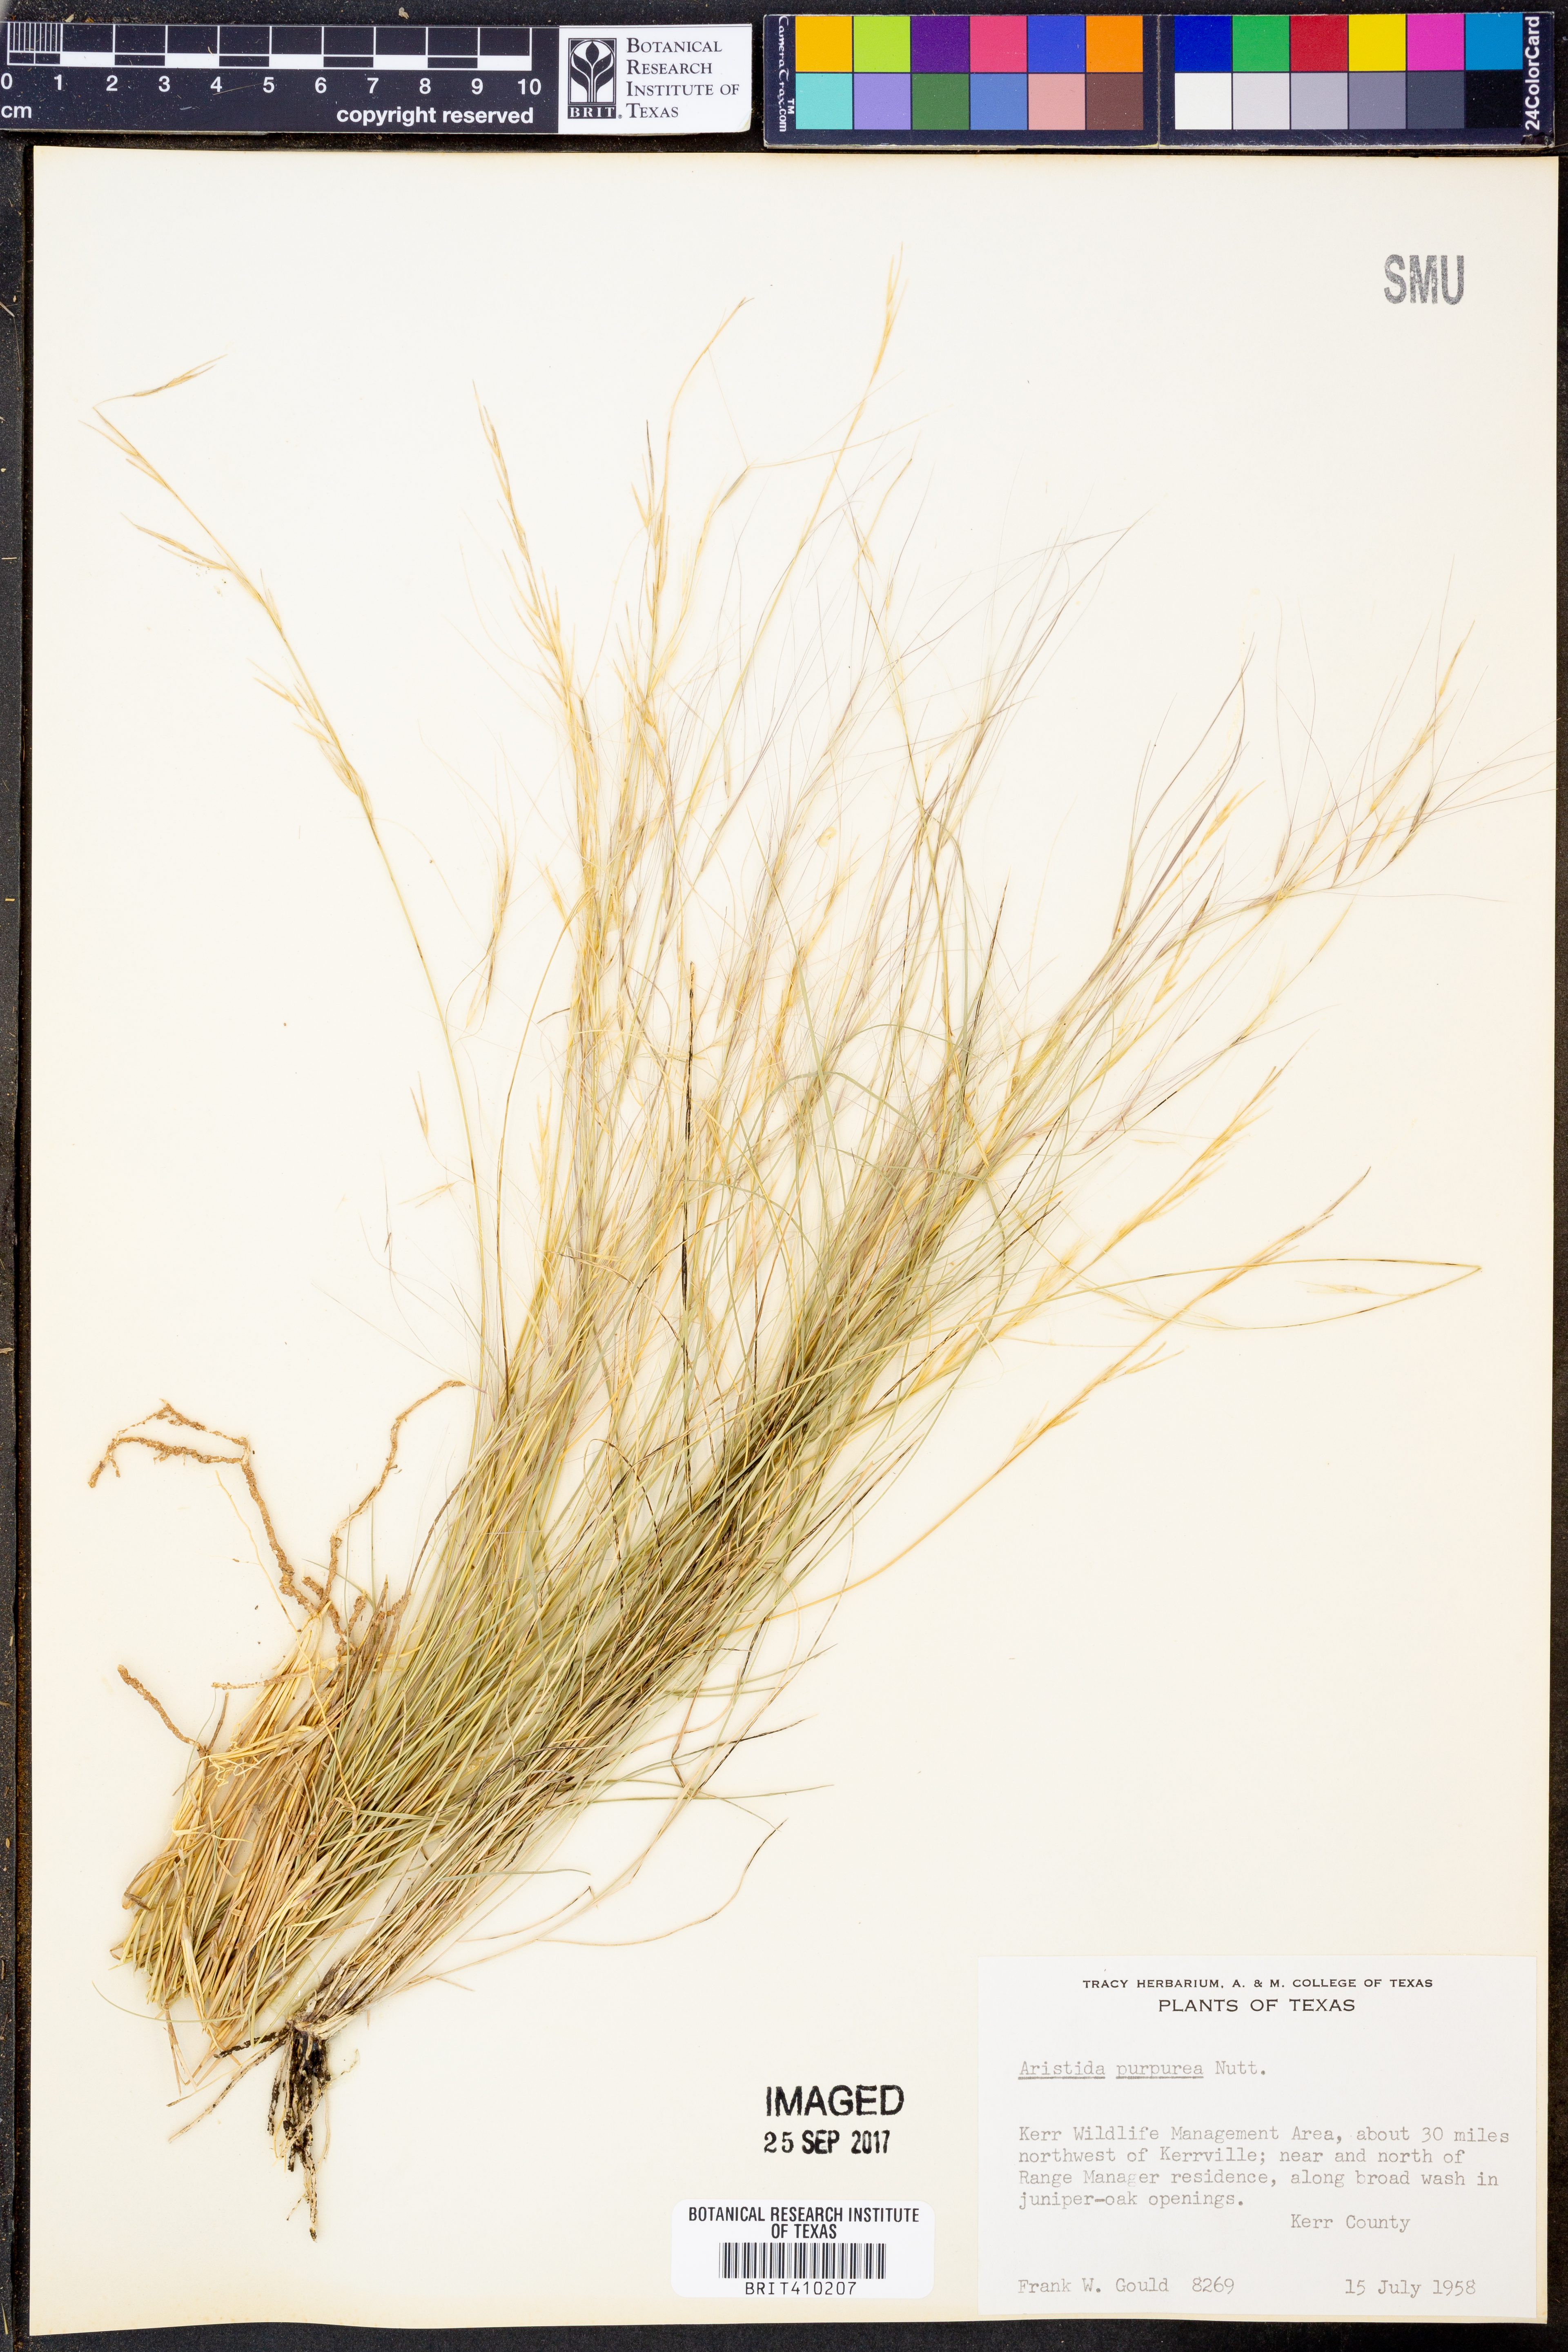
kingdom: Plantae
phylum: Tracheophyta
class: Liliopsida
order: Poales
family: Poaceae
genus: Aristida
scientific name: Aristida purpurea
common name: Purple threeawn
